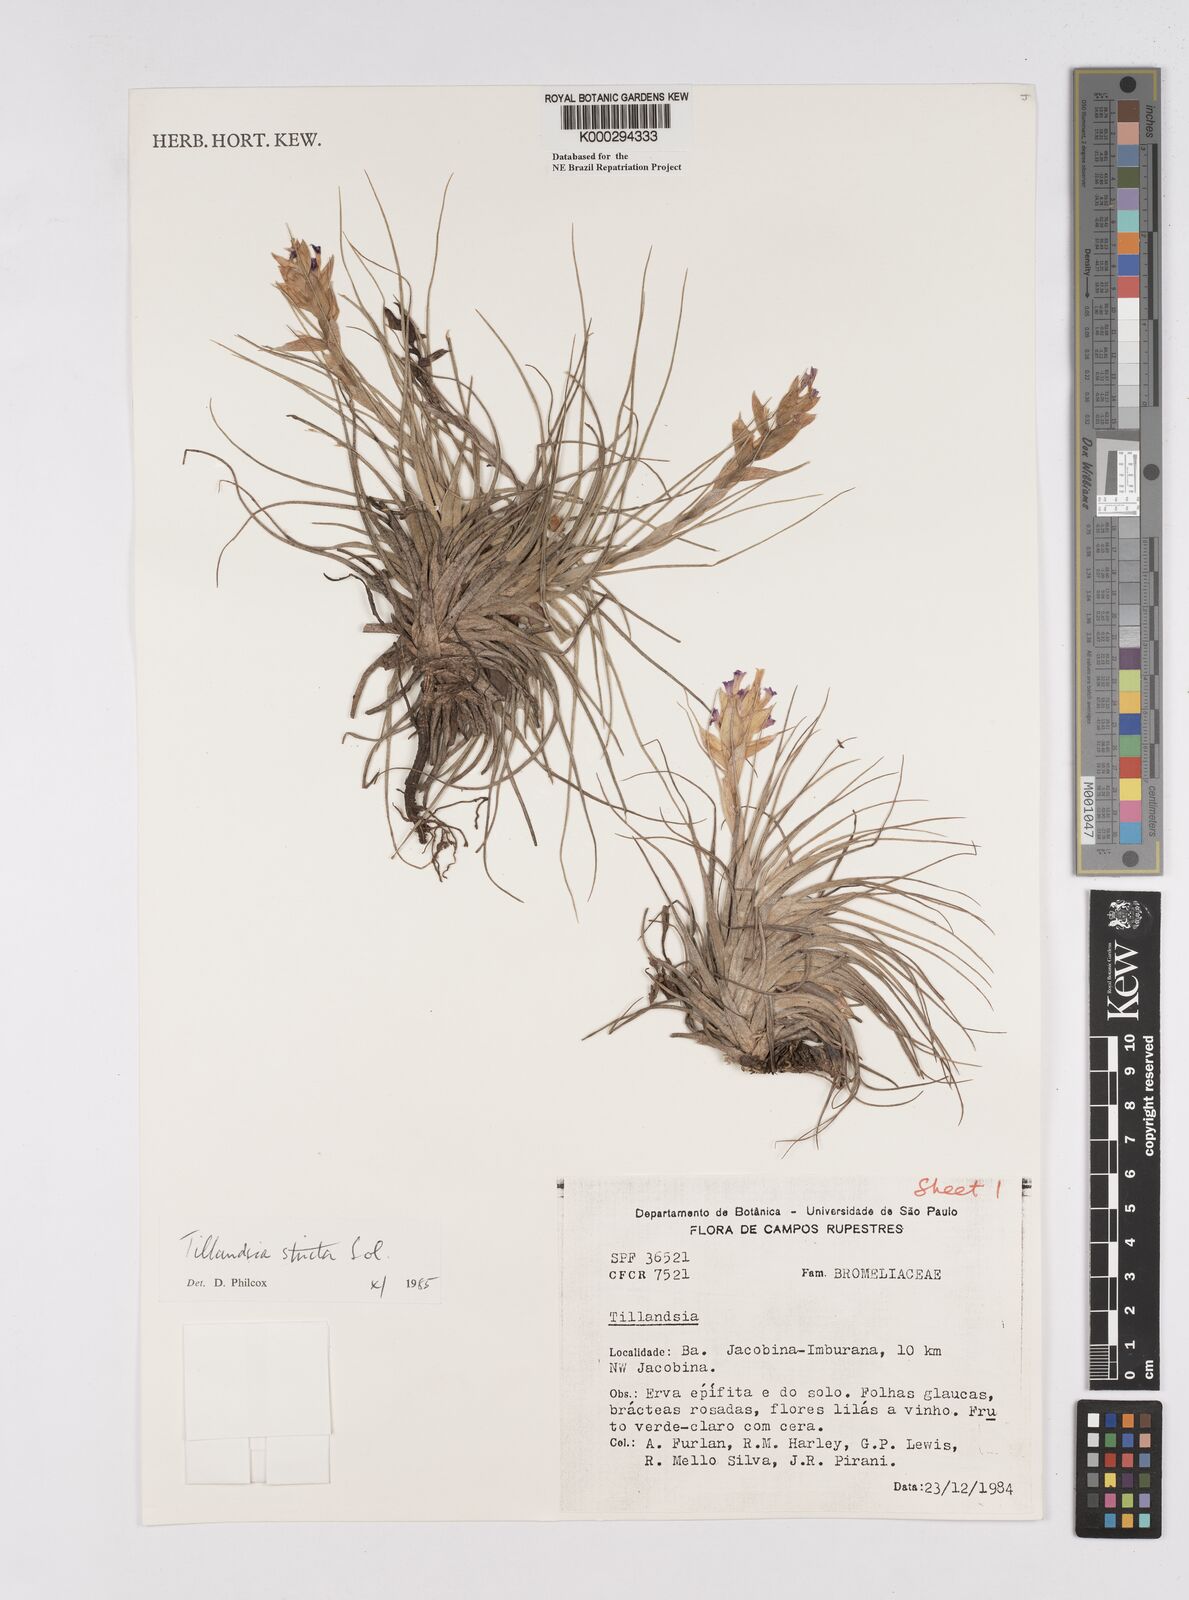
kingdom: Plantae
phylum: Tracheophyta
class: Liliopsida
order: Poales
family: Bromeliaceae
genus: Tillandsia
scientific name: Tillandsia
